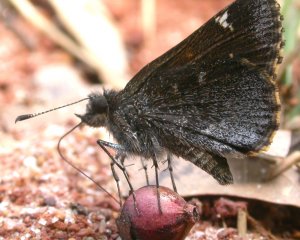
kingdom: Animalia
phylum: Arthropoda
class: Insecta
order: Lepidoptera
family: Hesperiidae
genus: Mastor
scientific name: Mastor vialis
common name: Common Roadside-Skipper
